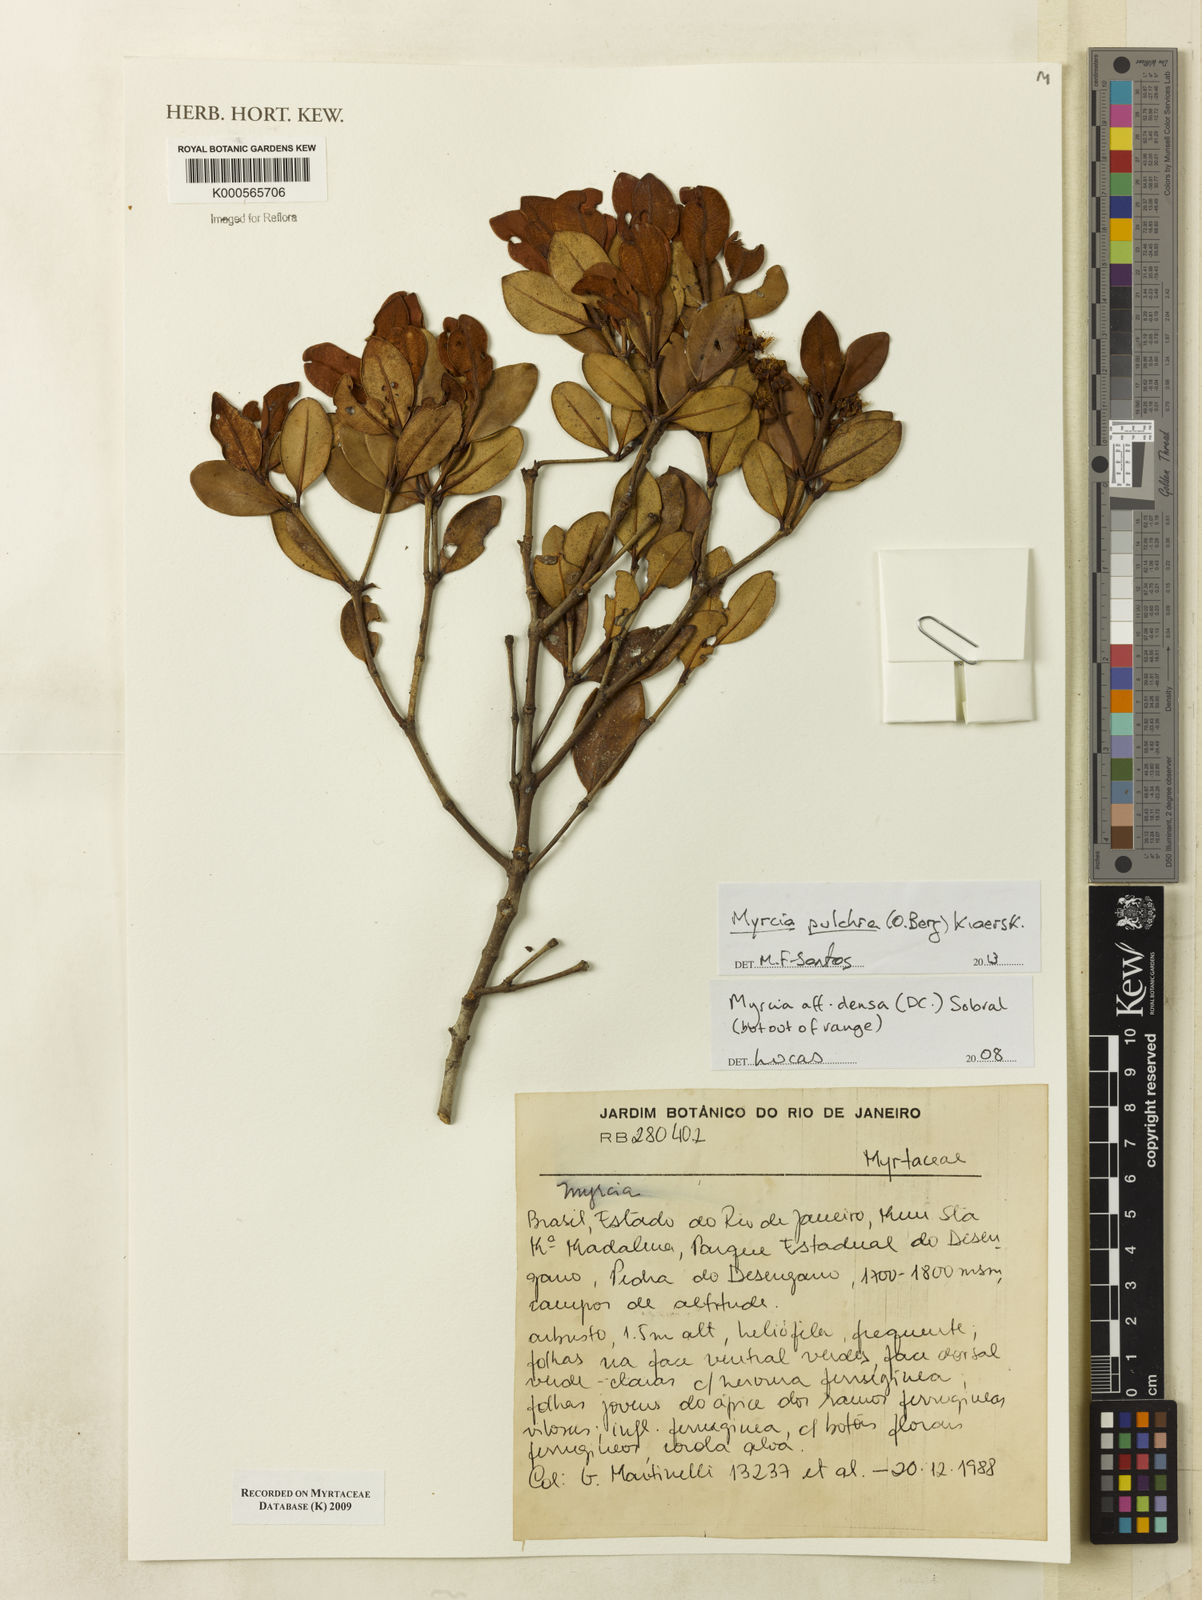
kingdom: Plantae
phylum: Tracheophyta
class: Magnoliopsida
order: Myrtales
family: Myrtaceae
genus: Myrcia
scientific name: Myrcia densa
